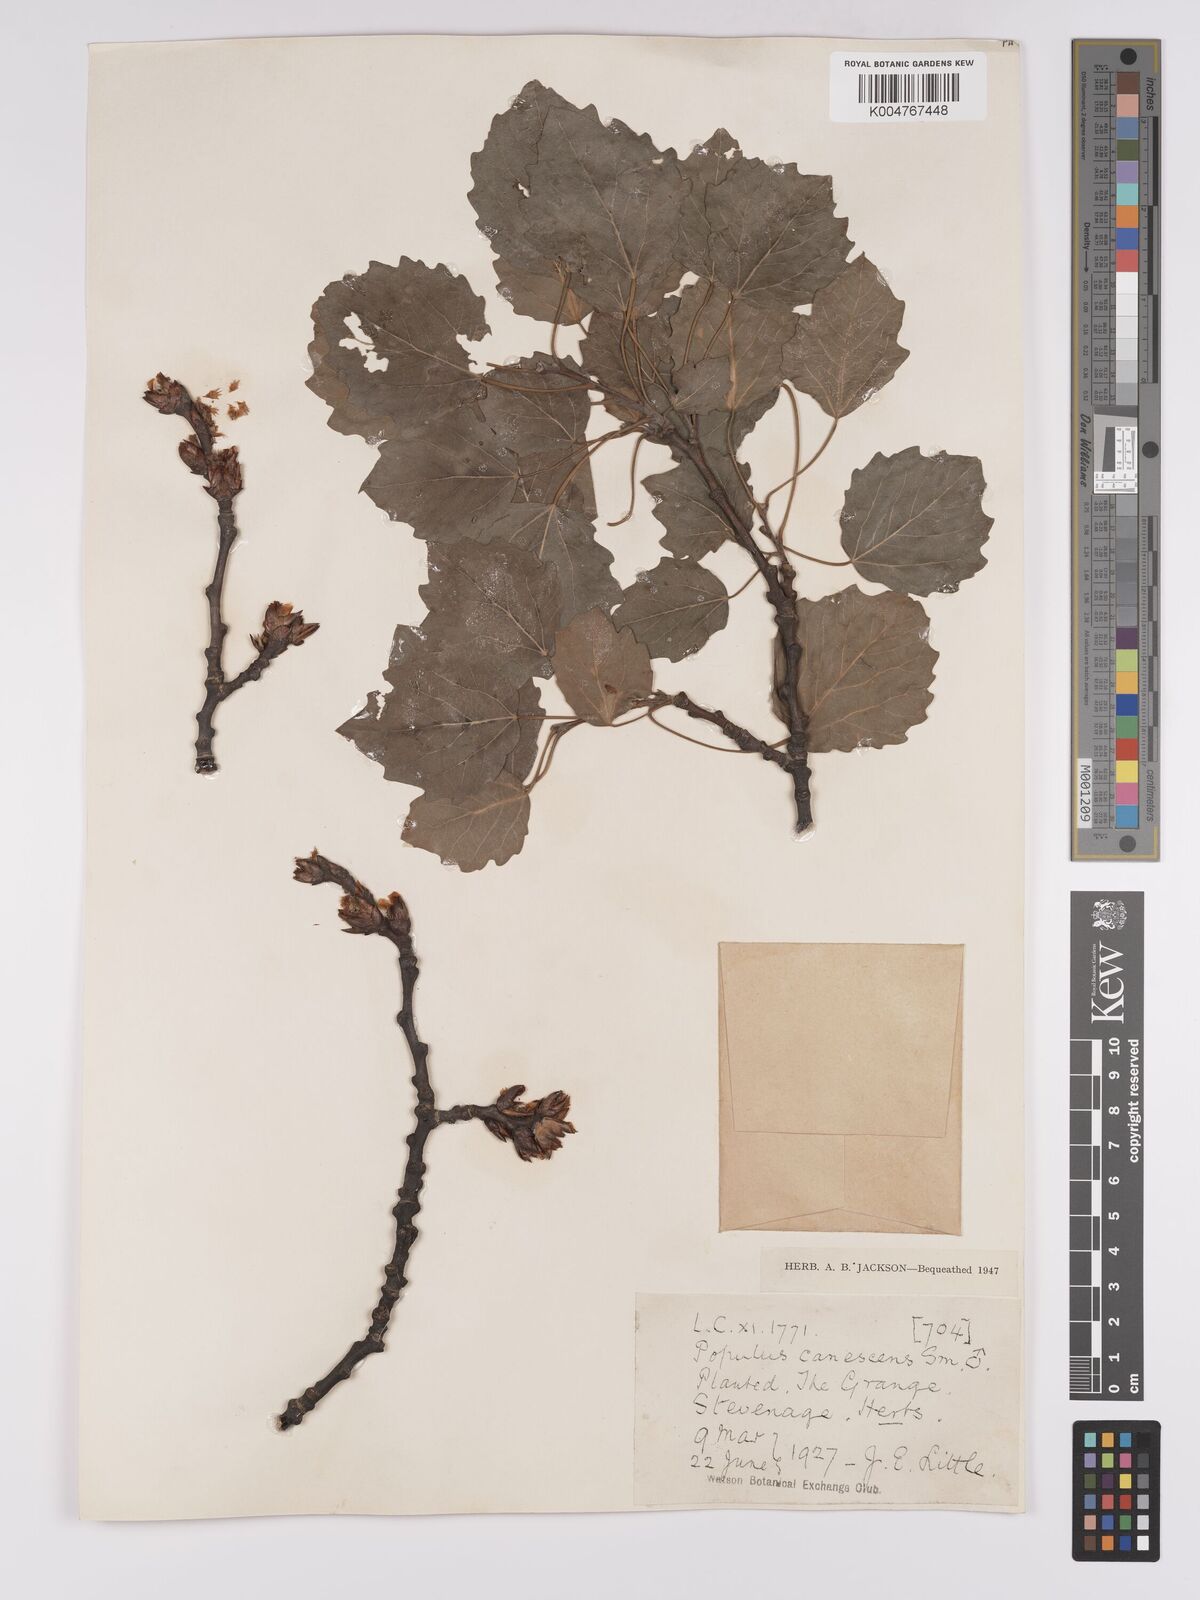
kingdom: Plantae
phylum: Tracheophyta
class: Magnoliopsida
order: Malpighiales
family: Salicaceae
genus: Populus
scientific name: Populus canescens
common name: Gray poplar
